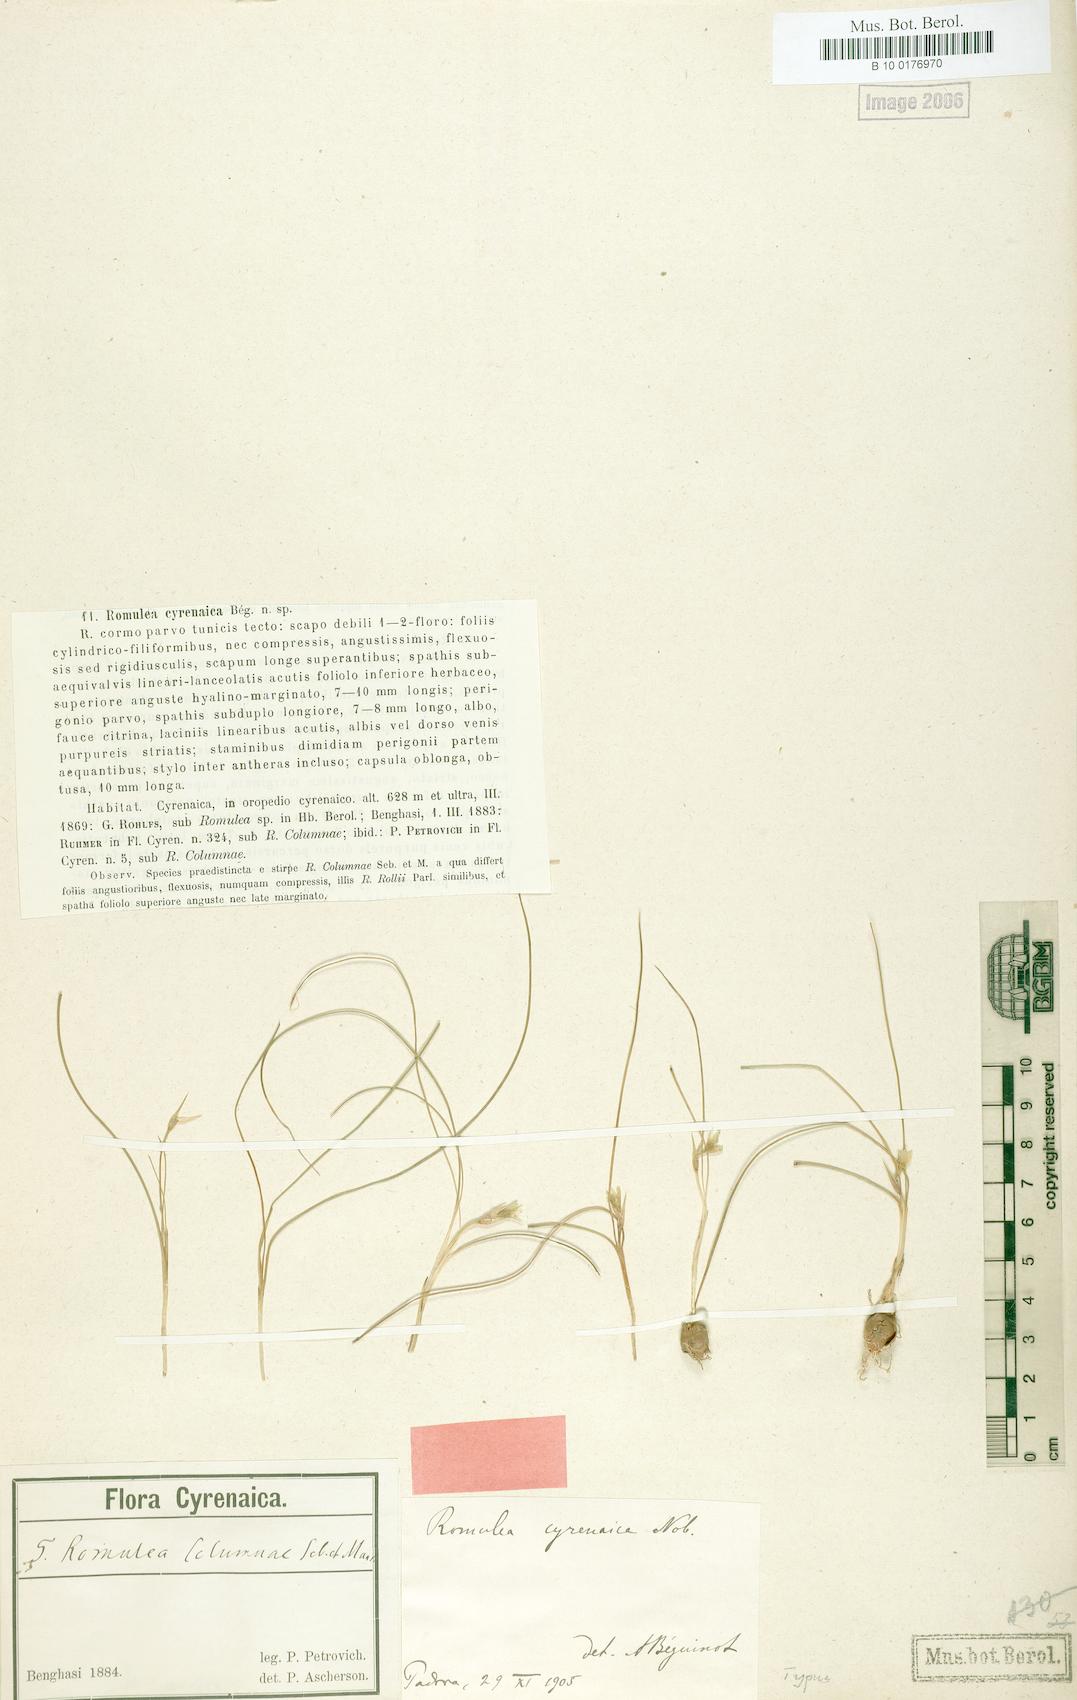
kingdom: Plantae
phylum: Tracheophyta
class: Liliopsida
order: Asparagales
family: Iridaceae
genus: Romulea
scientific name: Romulea cyrenaica
